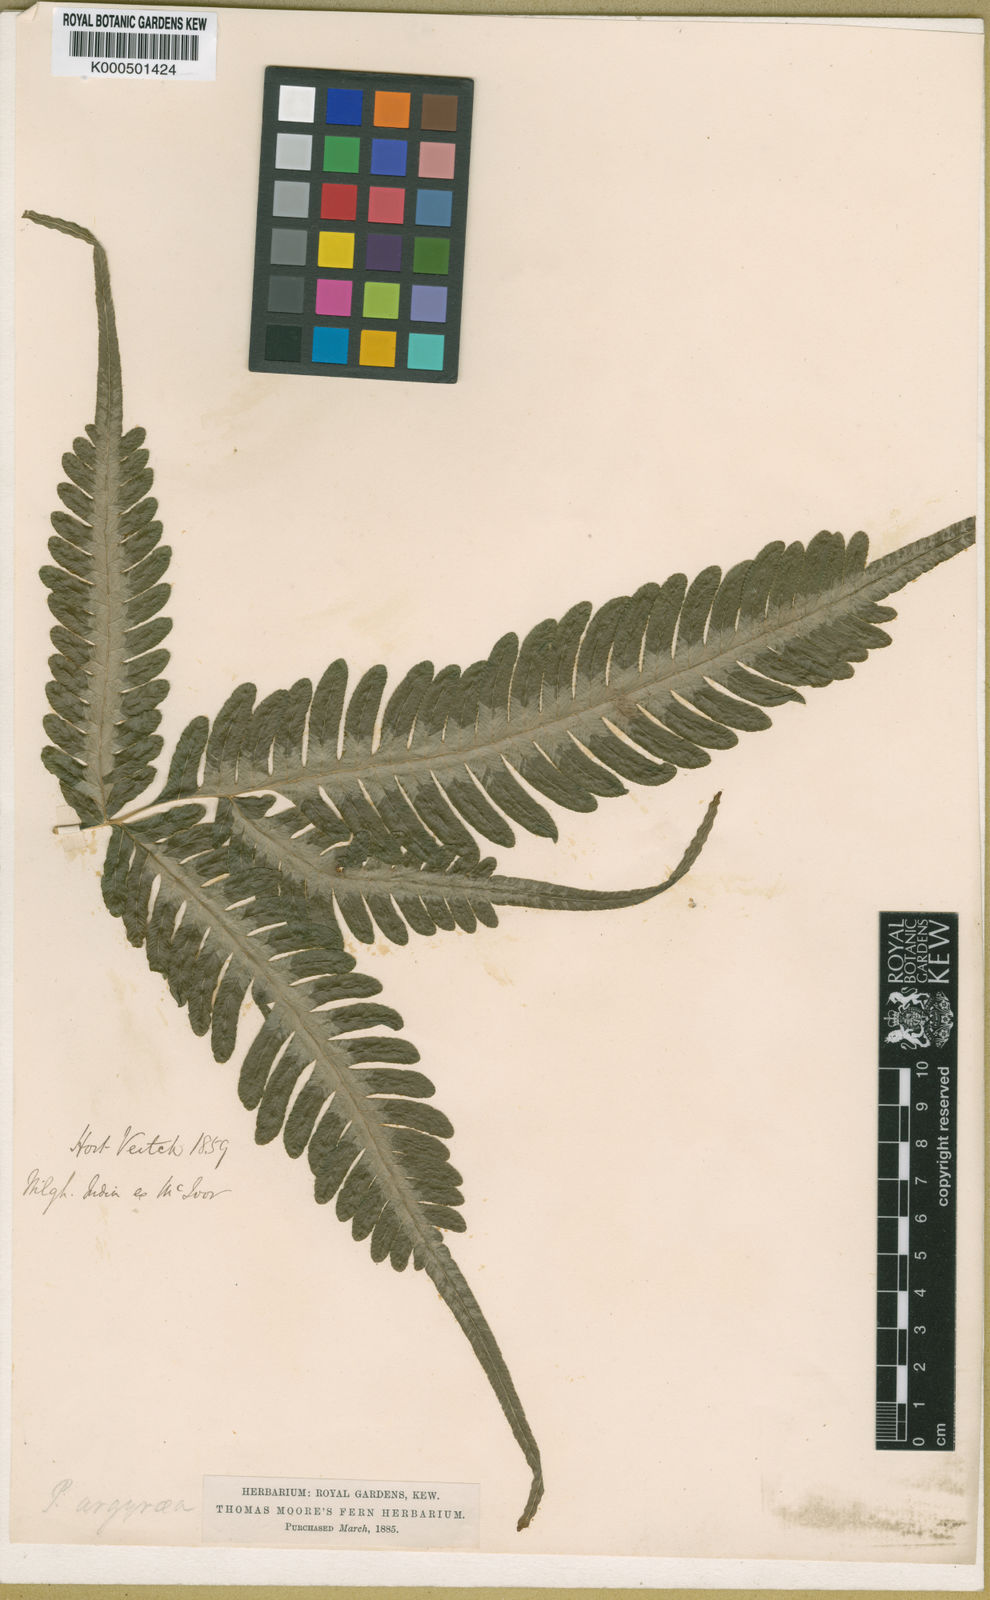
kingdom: Plantae
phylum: Tracheophyta
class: Polypodiopsida
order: Polypodiales
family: Pteridaceae
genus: Pteris
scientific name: Pteris cretica
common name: Ribbon fern
